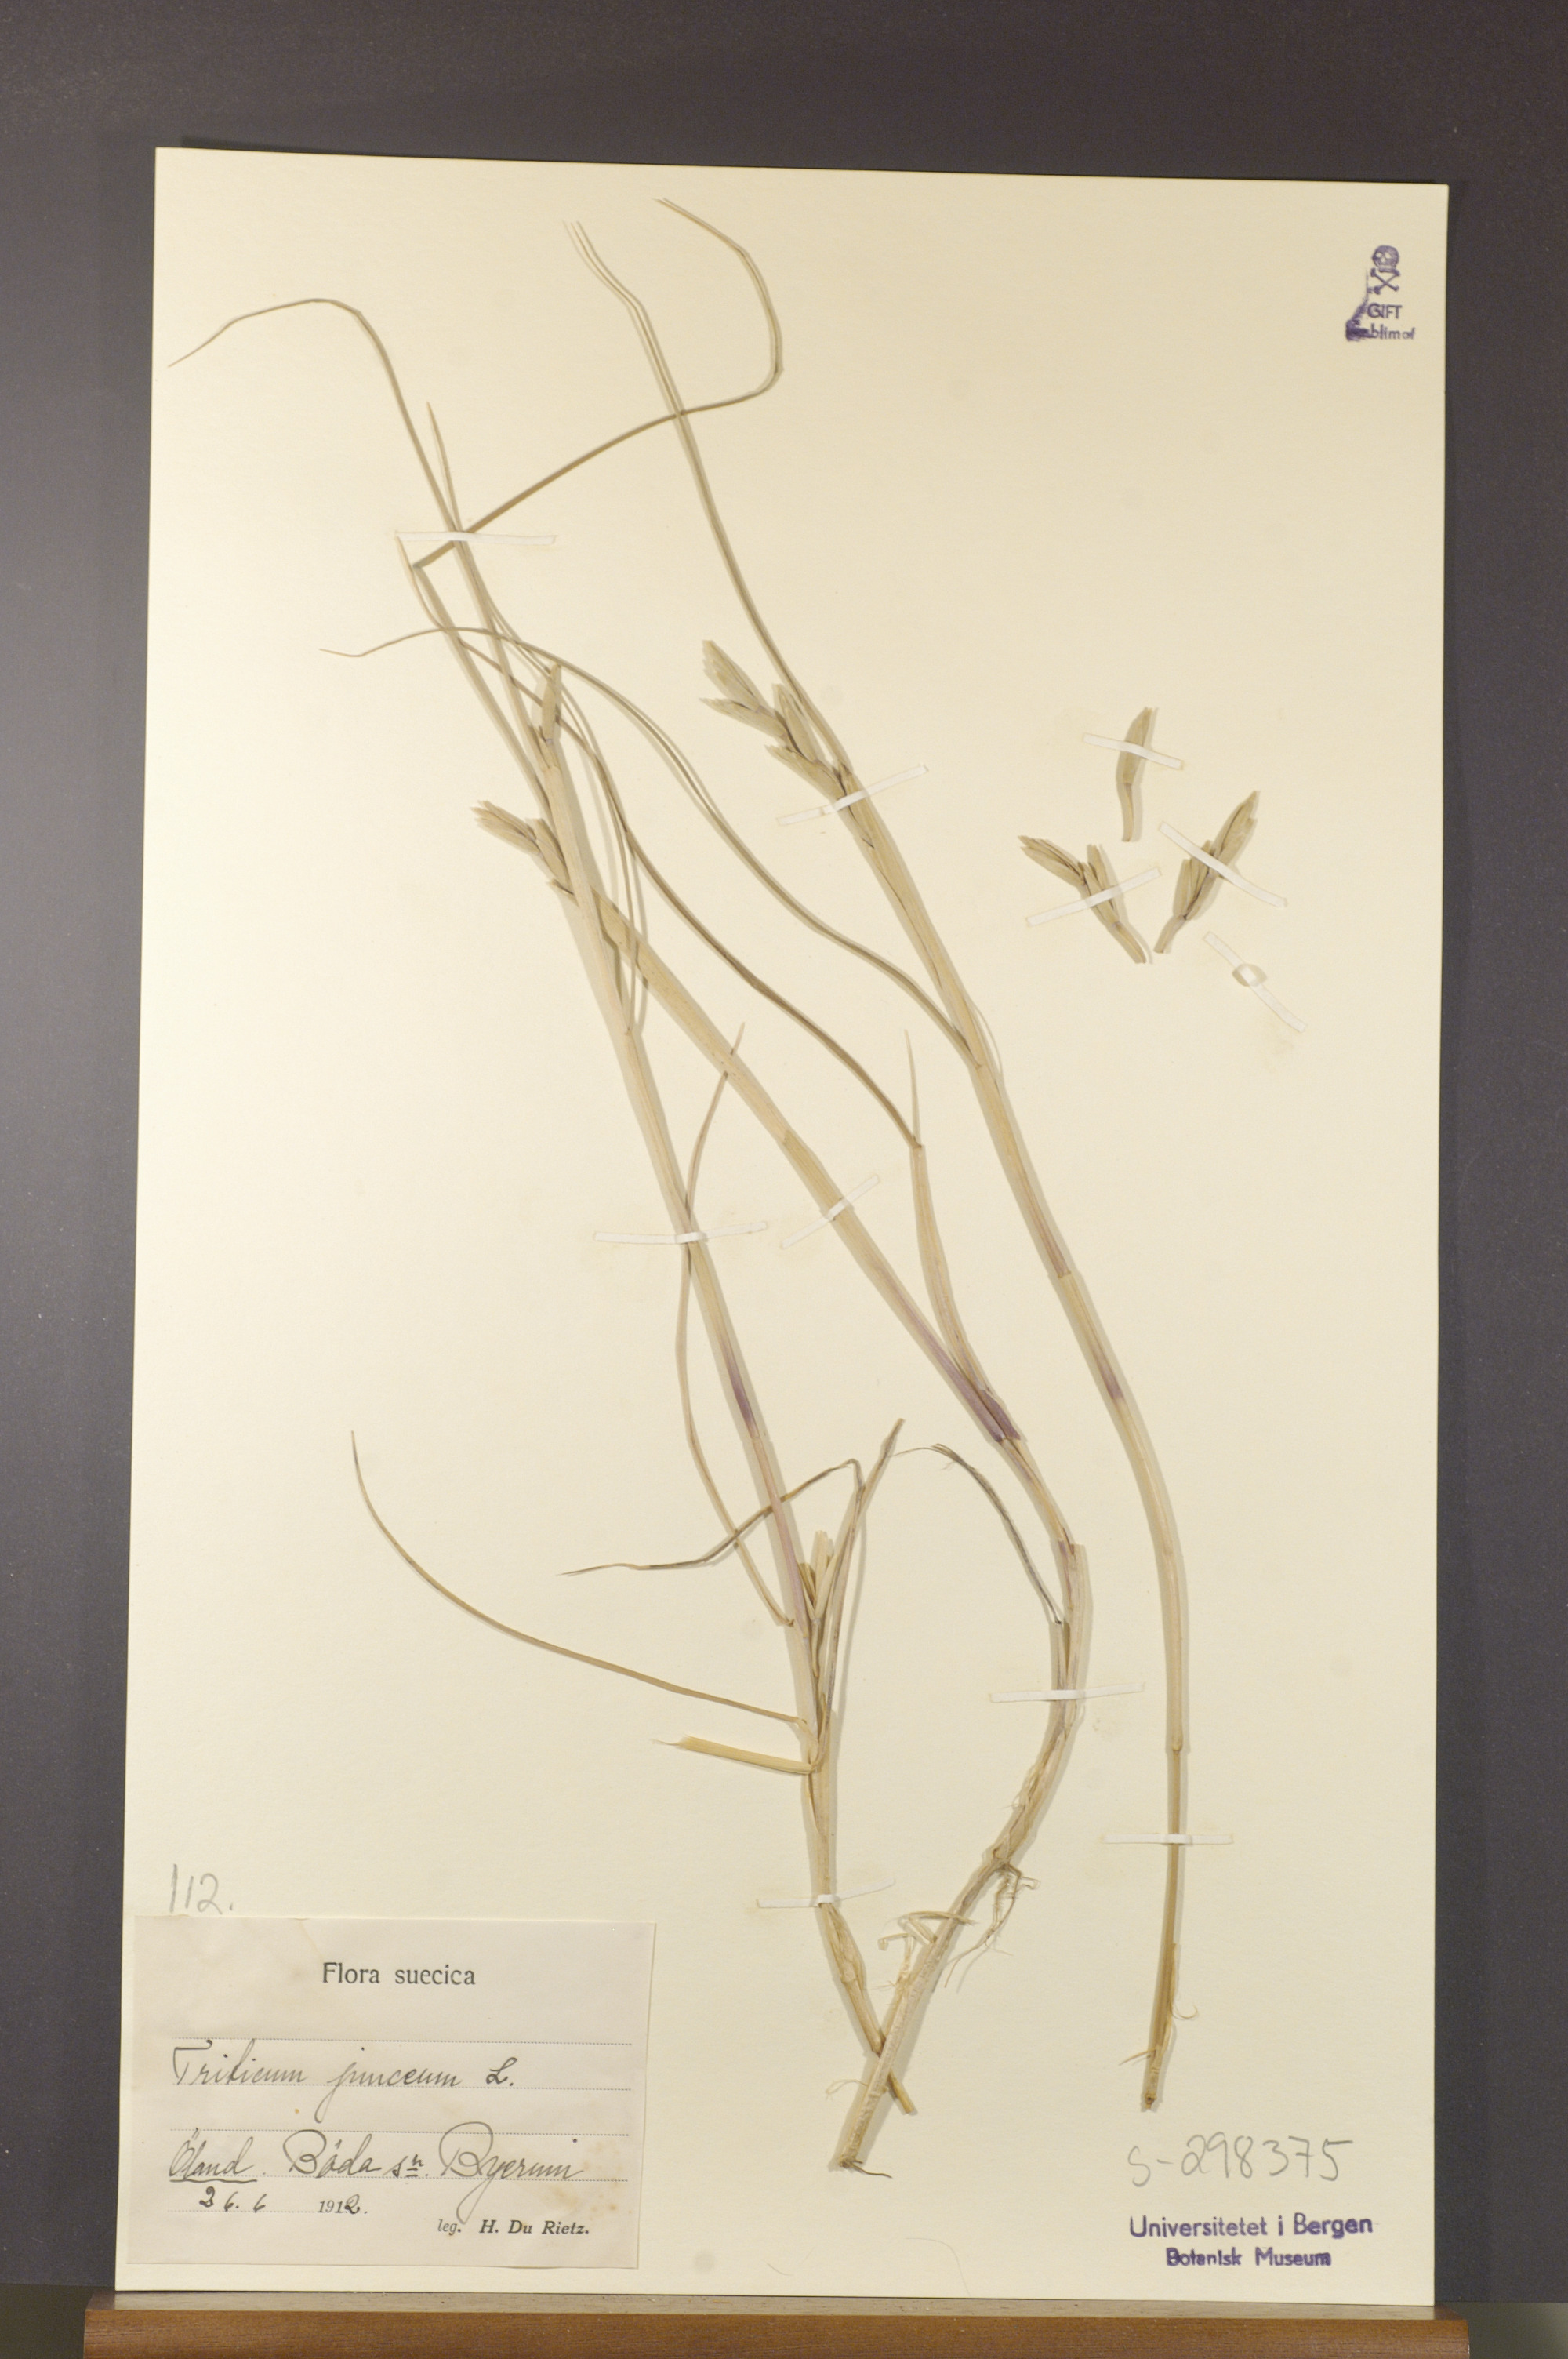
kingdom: Plantae
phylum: Tracheophyta
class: Liliopsida
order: Poales
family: Poaceae
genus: Thinopyrum
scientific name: Thinopyrum junceum
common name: Russian wheatgrass
